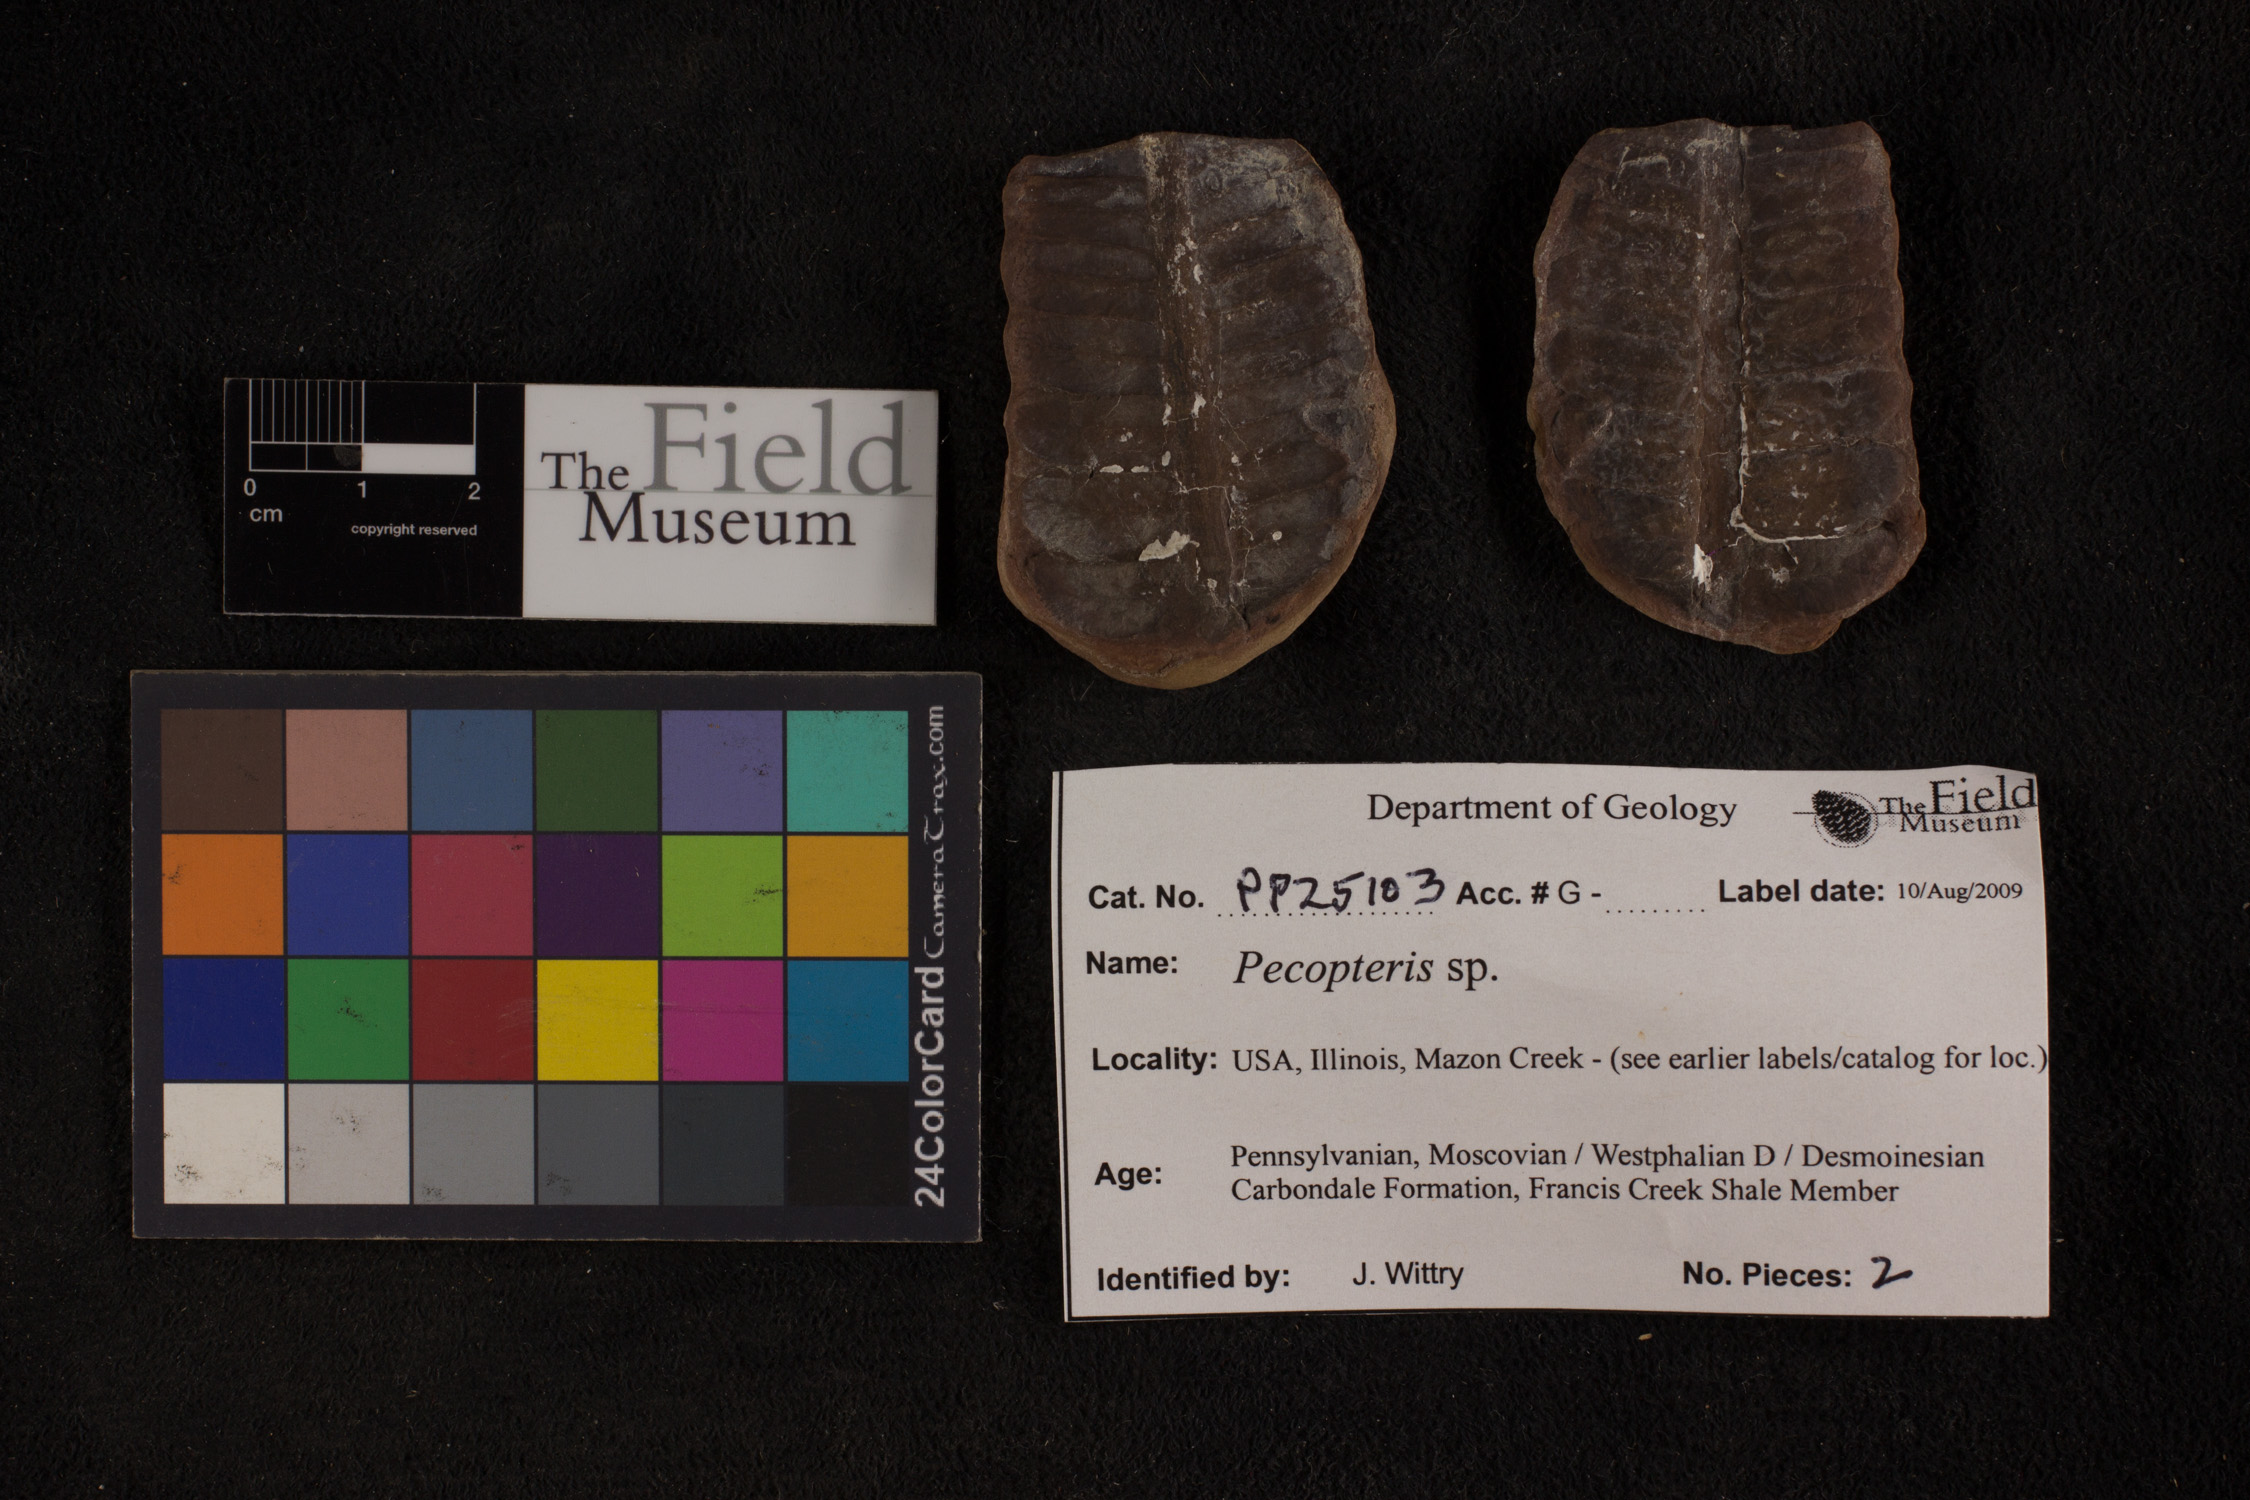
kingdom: Plantae
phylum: Tracheophyta
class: Polypodiopsida
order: Marattiales
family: Asterothecaceae
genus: Pecopteris
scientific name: Pecopteris
